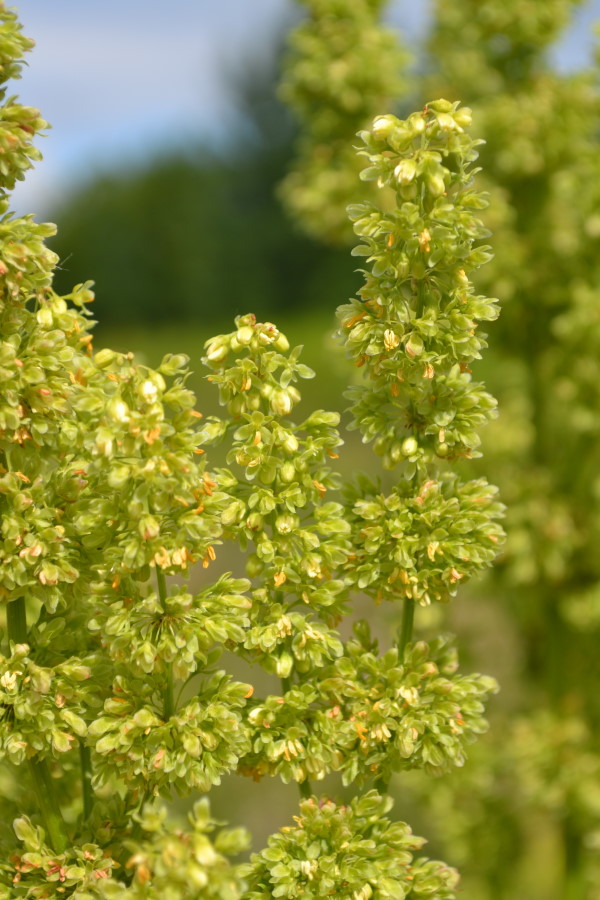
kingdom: Plantae
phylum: Tracheophyta
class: Magnoliopsida
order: Caryophyllales
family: Polygonaceae
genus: Rumex
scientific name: Rumex confertus
